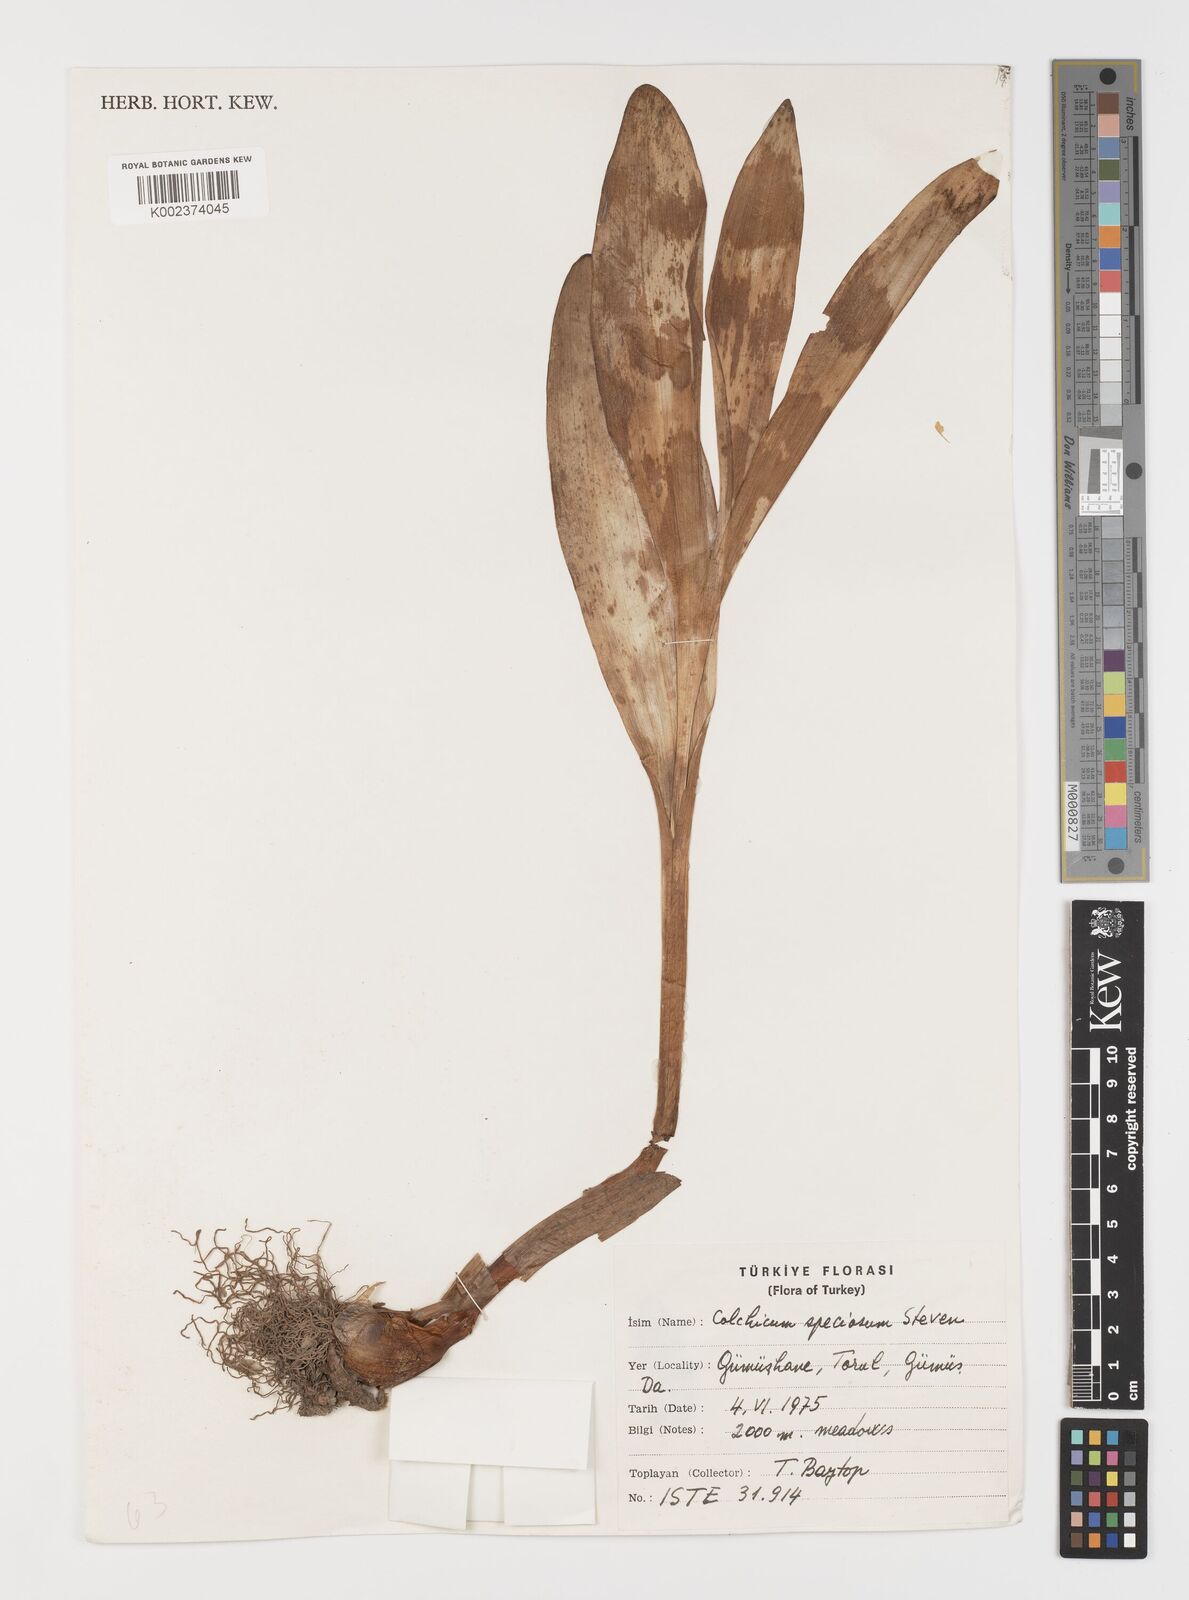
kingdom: Plantae
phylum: Tracheophyta
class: Liliopsida
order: Liliales
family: Colchicaceae
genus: Colchicum
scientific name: Colchicum speciosum
